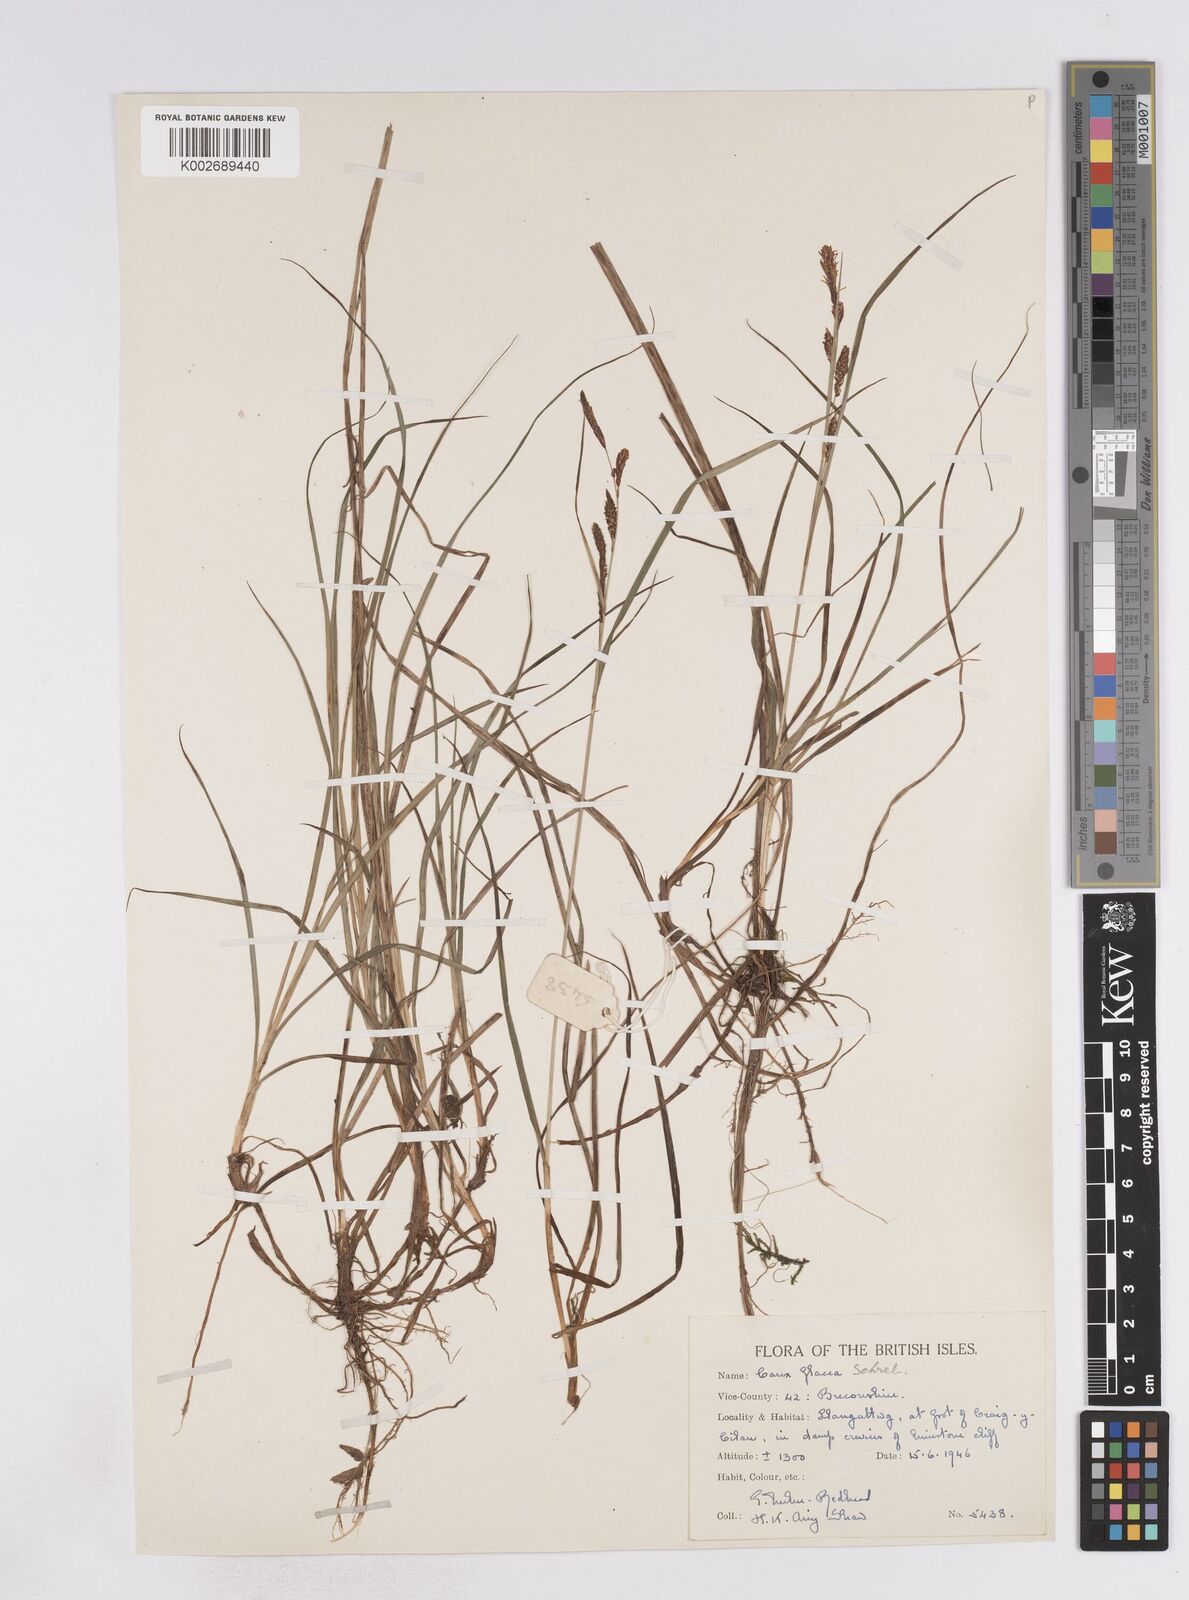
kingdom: Plantae
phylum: Tracheophyta
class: Liliopsida
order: Poales
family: Cyperaceae
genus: Carex
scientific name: Carex flacca
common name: Glaucous sedge
